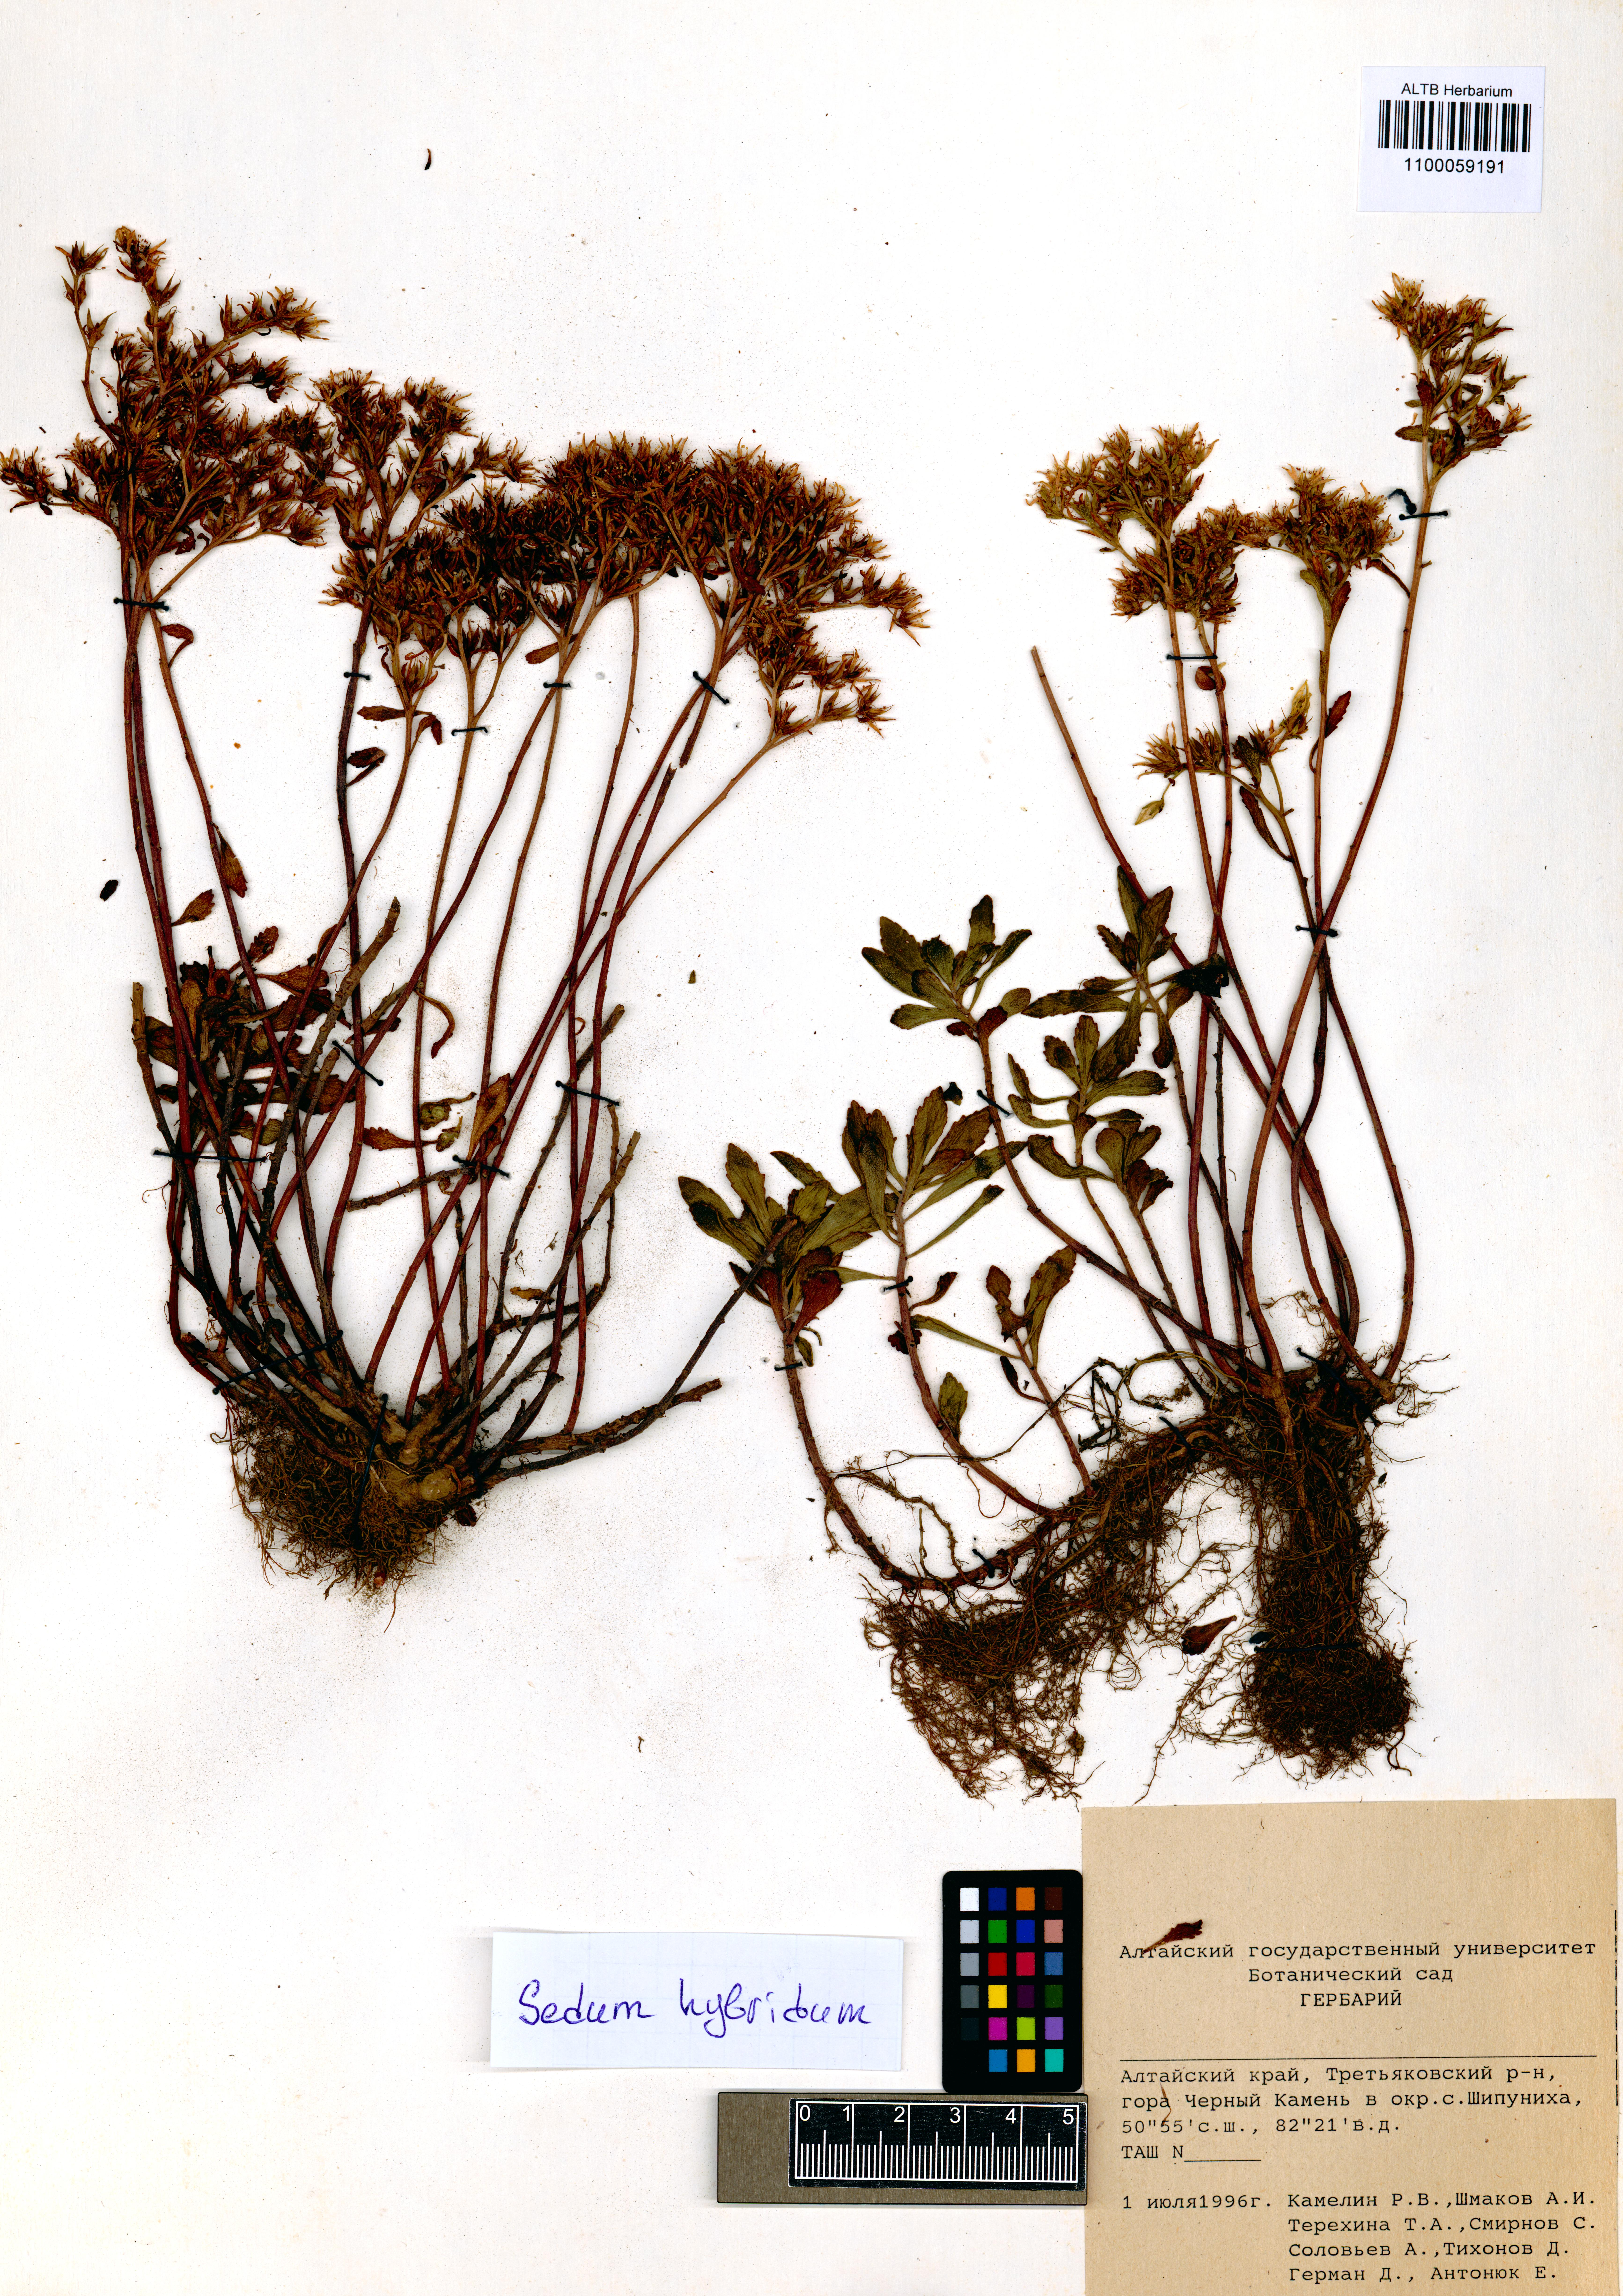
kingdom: Plantae
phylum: Tracheophyta
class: Magnoliopsida
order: Saxifragales
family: Crassulaceae
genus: Phedimus
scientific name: Phedimus hybridus
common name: Hybrid stonecrop
